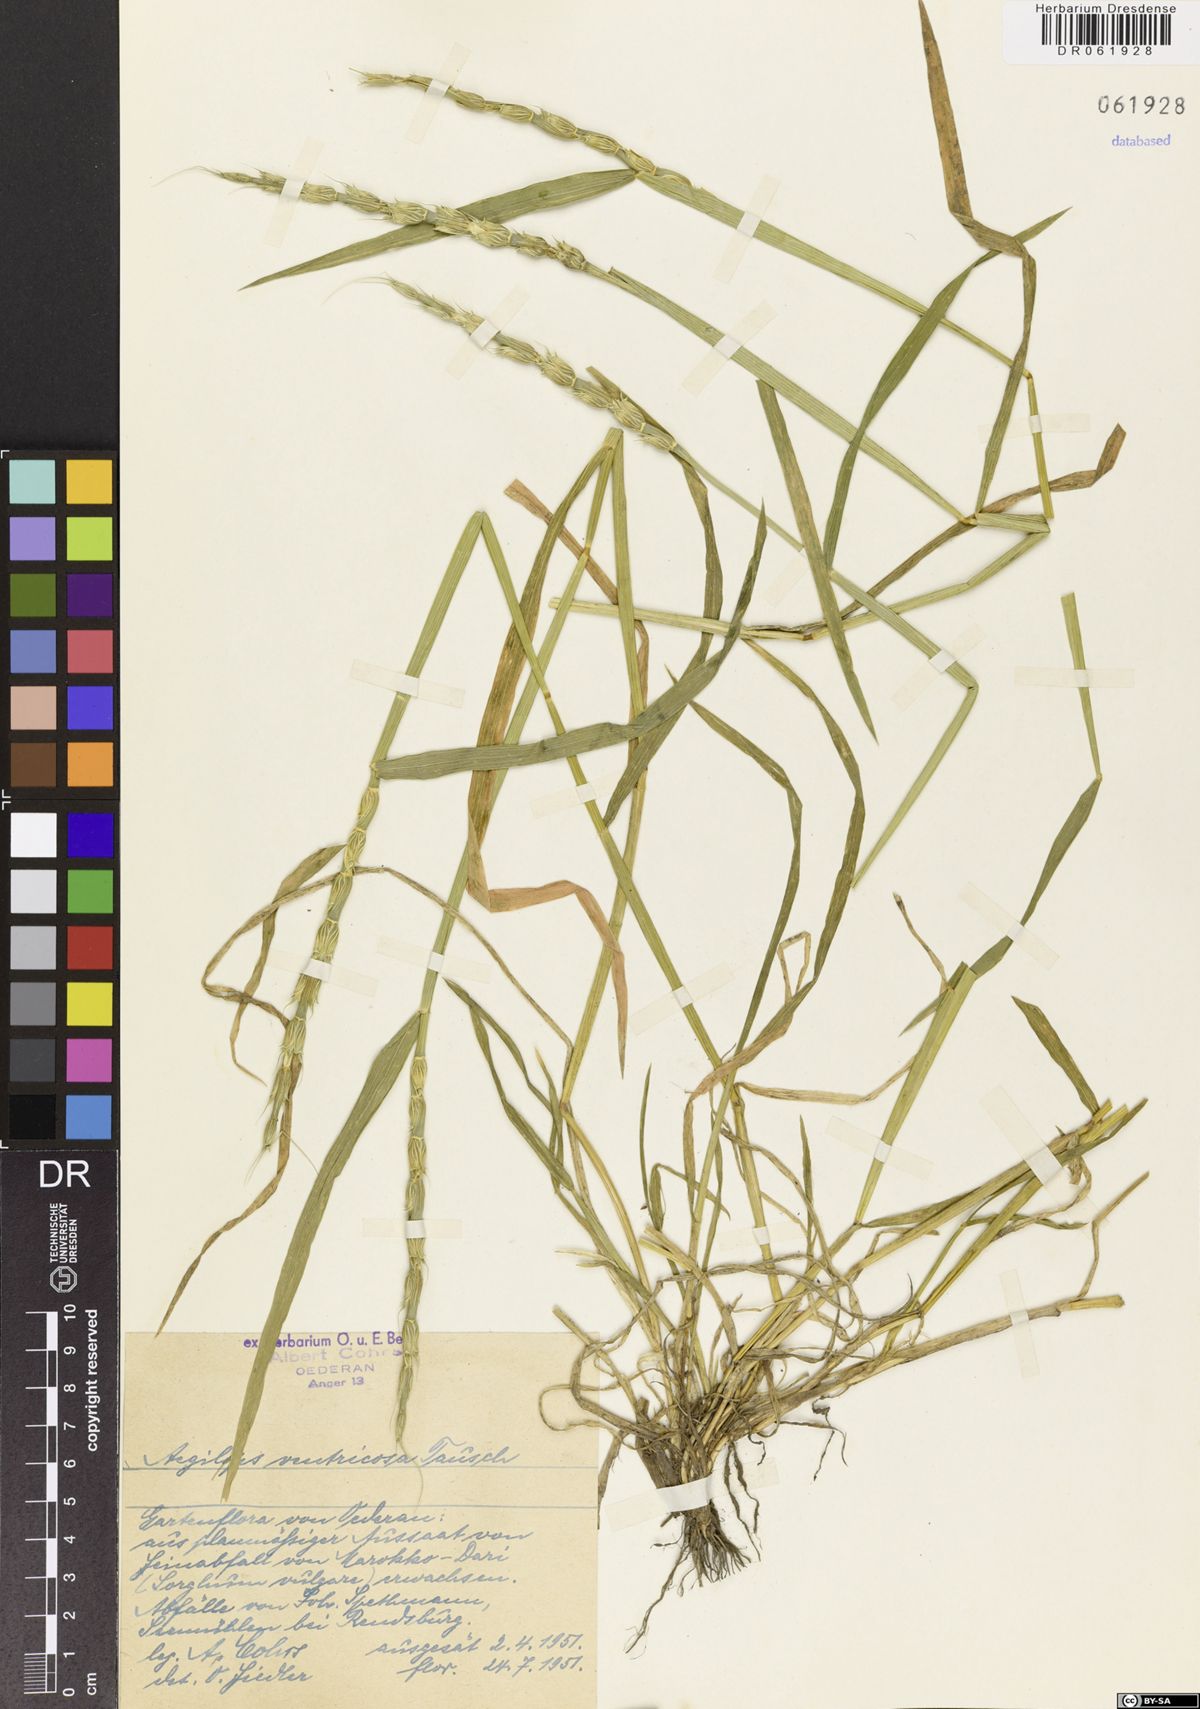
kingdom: Plantae
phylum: Tracheophyta
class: Liliopsida
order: Poales
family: Poaceae
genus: Aegilops
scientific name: Aegilops ventricosa
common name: Swollen goat grass
